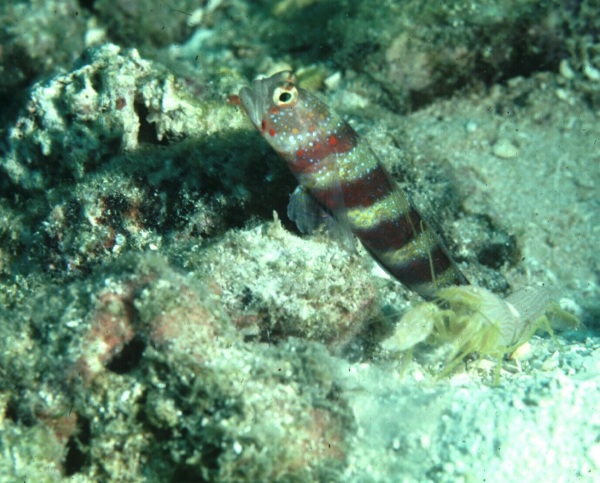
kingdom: Animalia
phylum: Chordata
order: Perciformes
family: Gobiidae
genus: Amblyeleotris
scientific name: Amblyeleotris fasciata
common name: Red-banded prawn-goby
